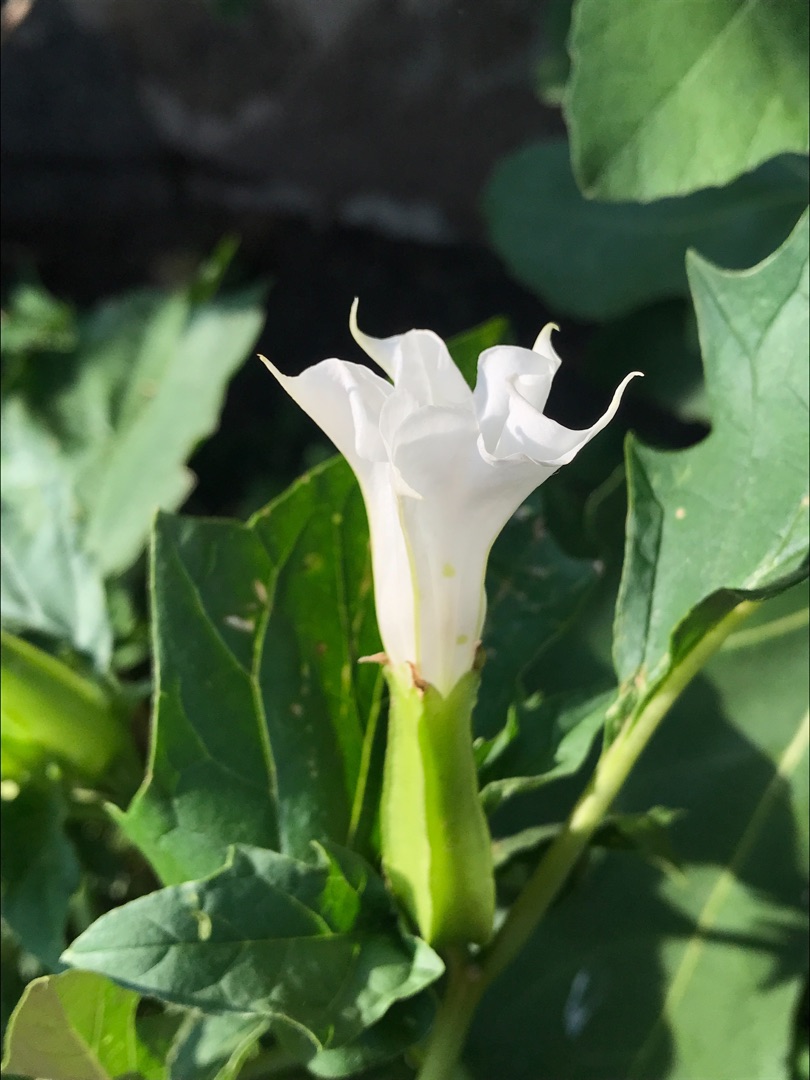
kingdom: Plantae
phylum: Tracheophyta
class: Magnoliopsida
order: Solanales
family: Solanaceae
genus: Datura
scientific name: Datura stramonium
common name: Hvid pigæble
